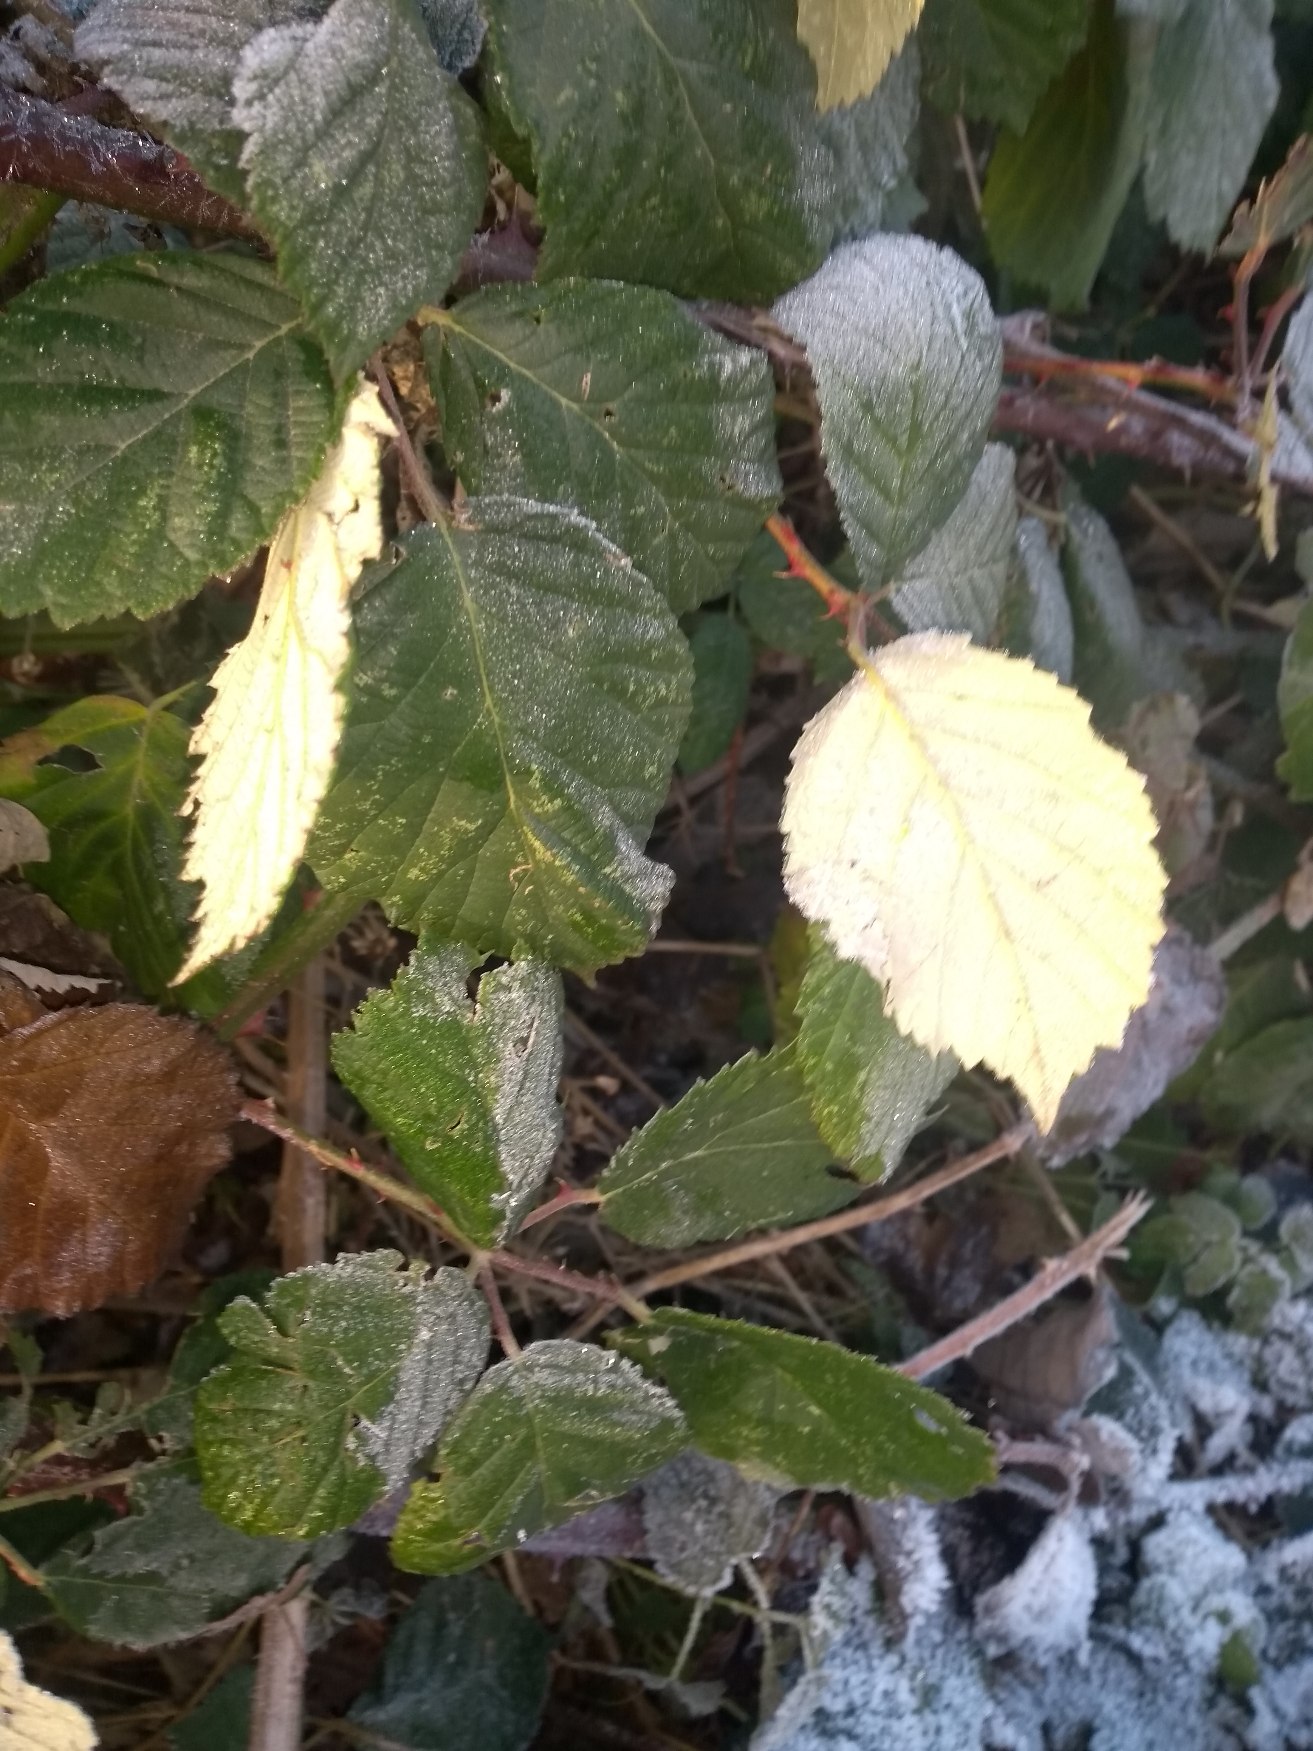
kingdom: Plantae
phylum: Tracheophyta
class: Magnoliopsida
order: Rosales
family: Rosaceae
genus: Rubus
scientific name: Rubus armeniacus
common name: Armensk brombær
